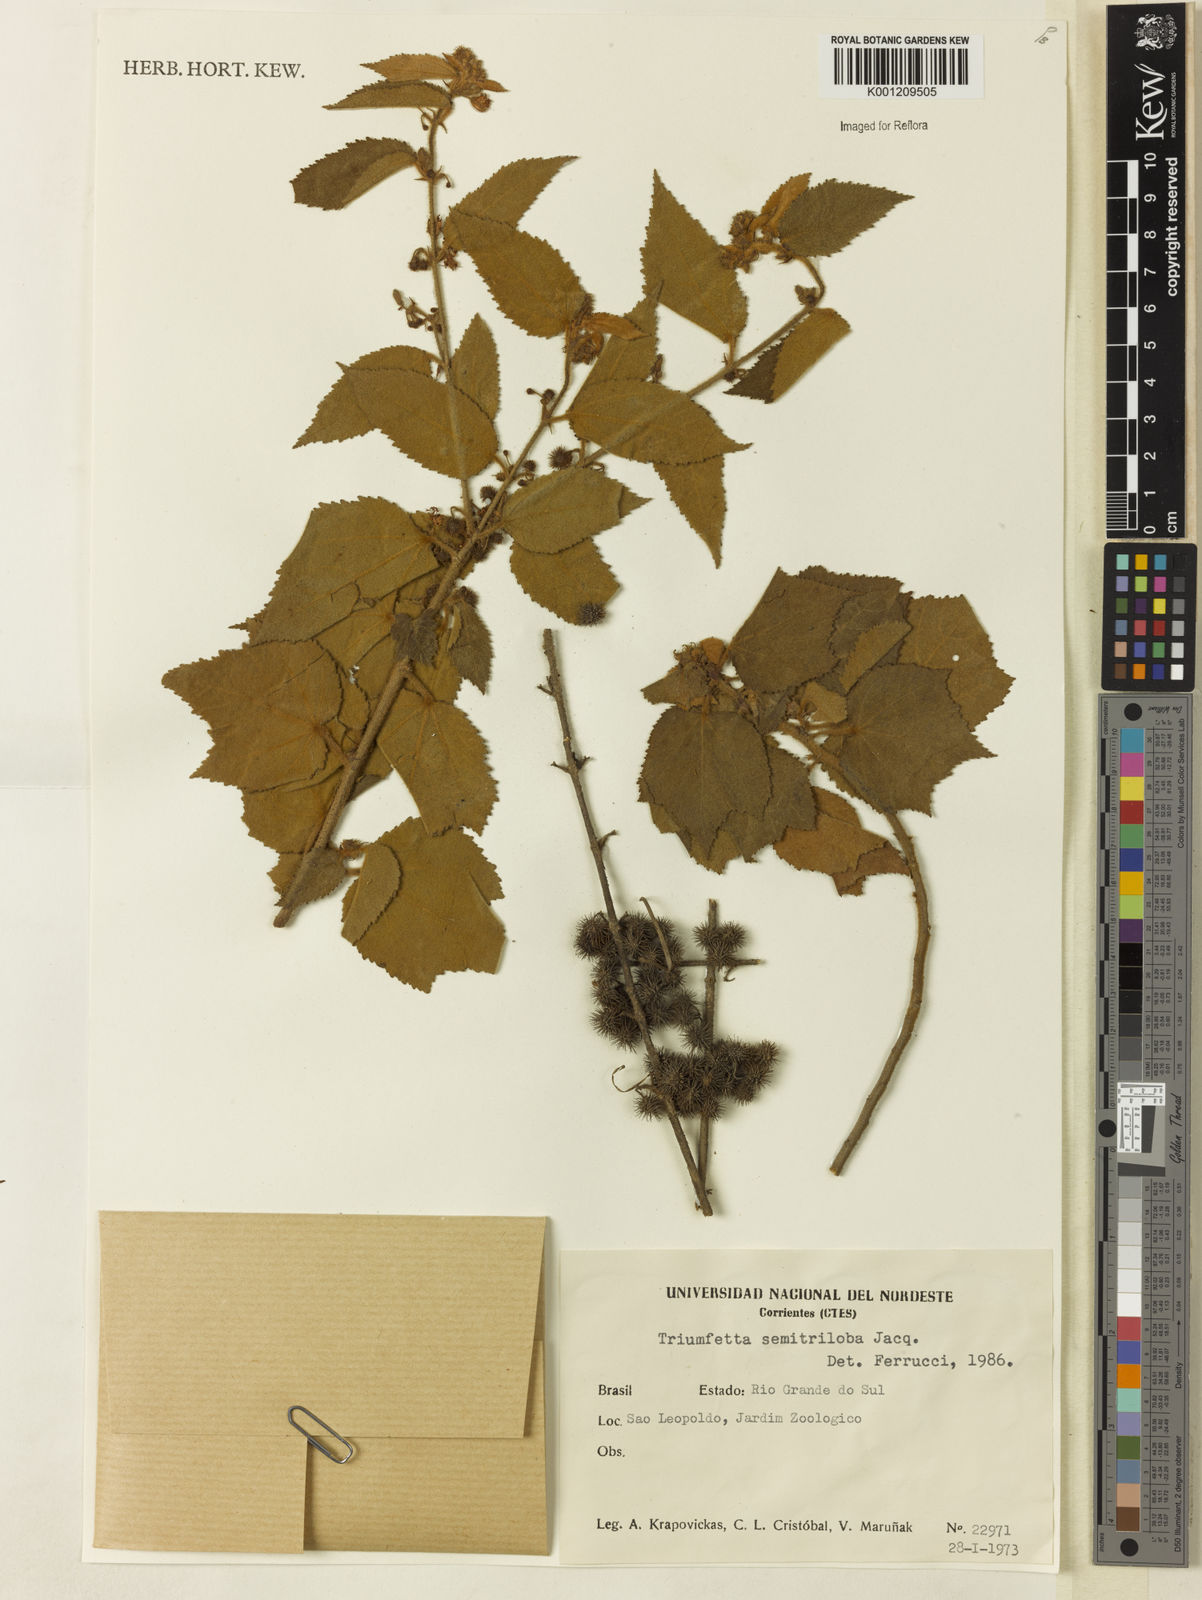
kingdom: Plantae
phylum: Tracheophyta
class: Magnoliopsida
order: Malvales
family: Malvaceae
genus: Triumfetta
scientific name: Triumfetta semitriloba
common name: Sacramento burbark
